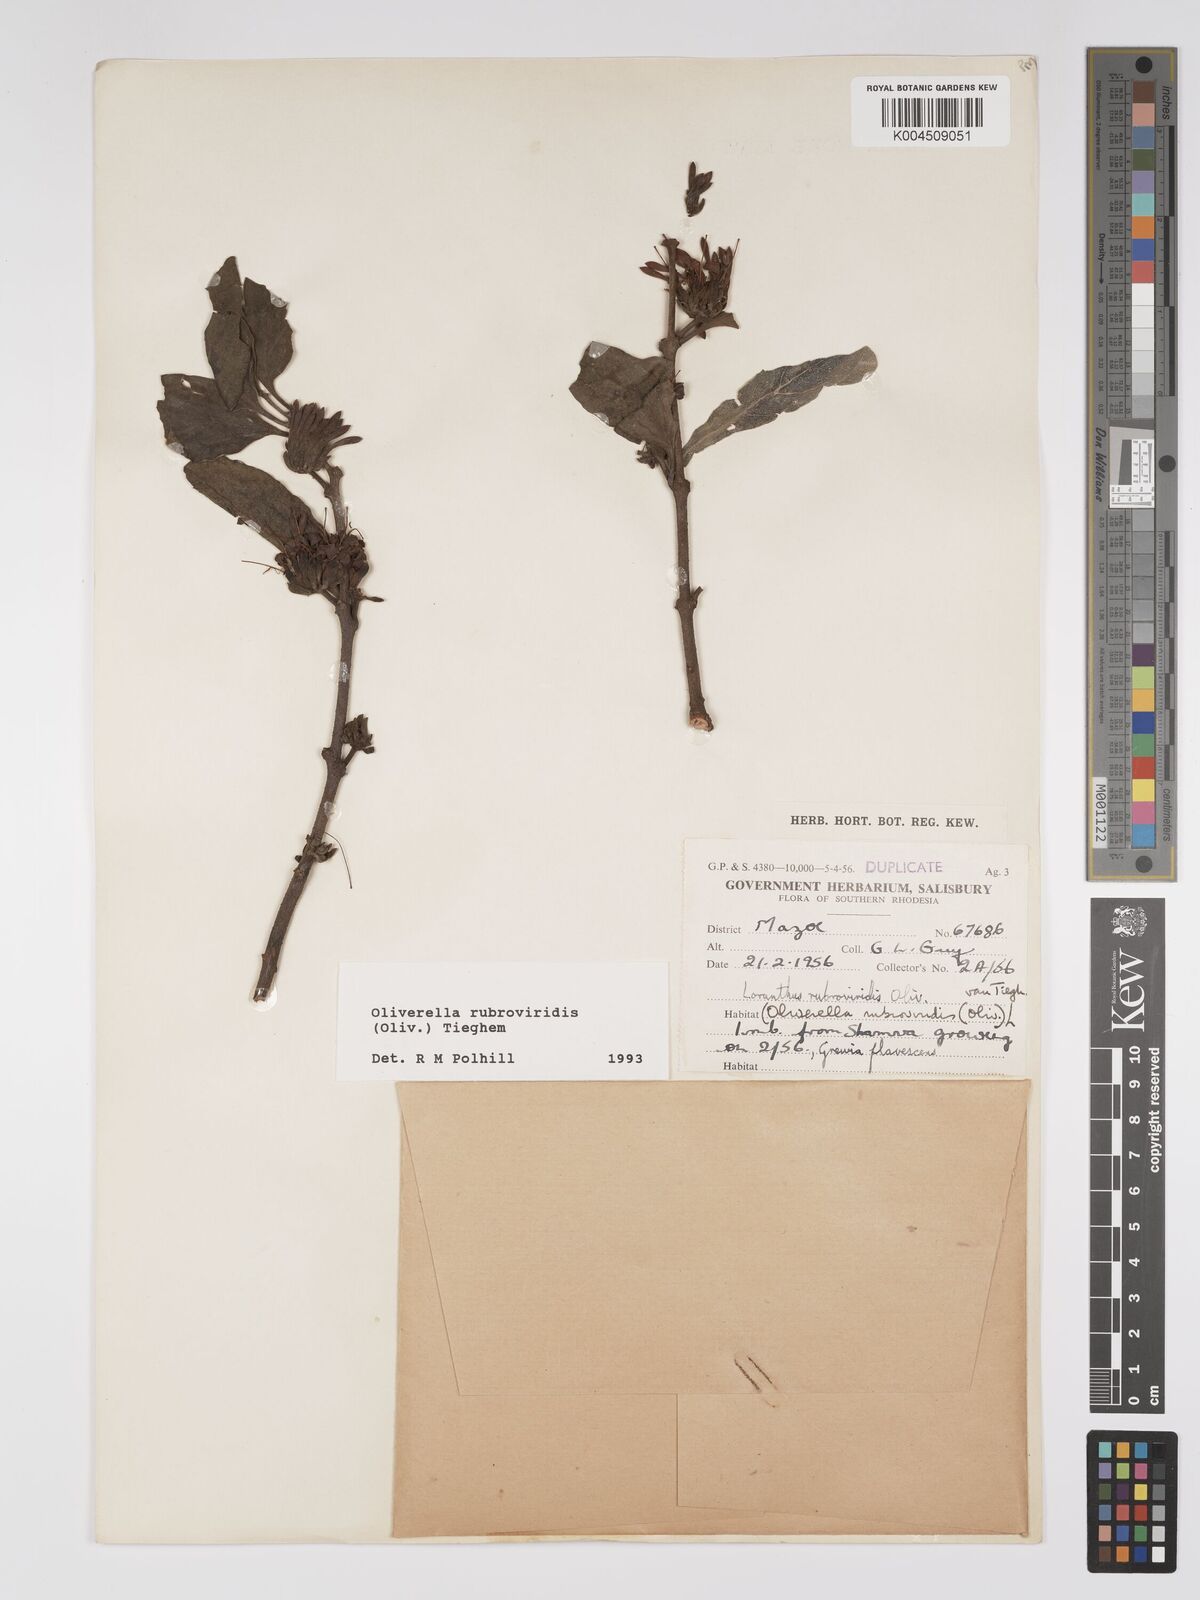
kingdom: Plantae
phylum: Tracheophyta
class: Magnoliopsida
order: Santalales
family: Loranthaceae
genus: Oliverella
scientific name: Oliverella rubroviridis
